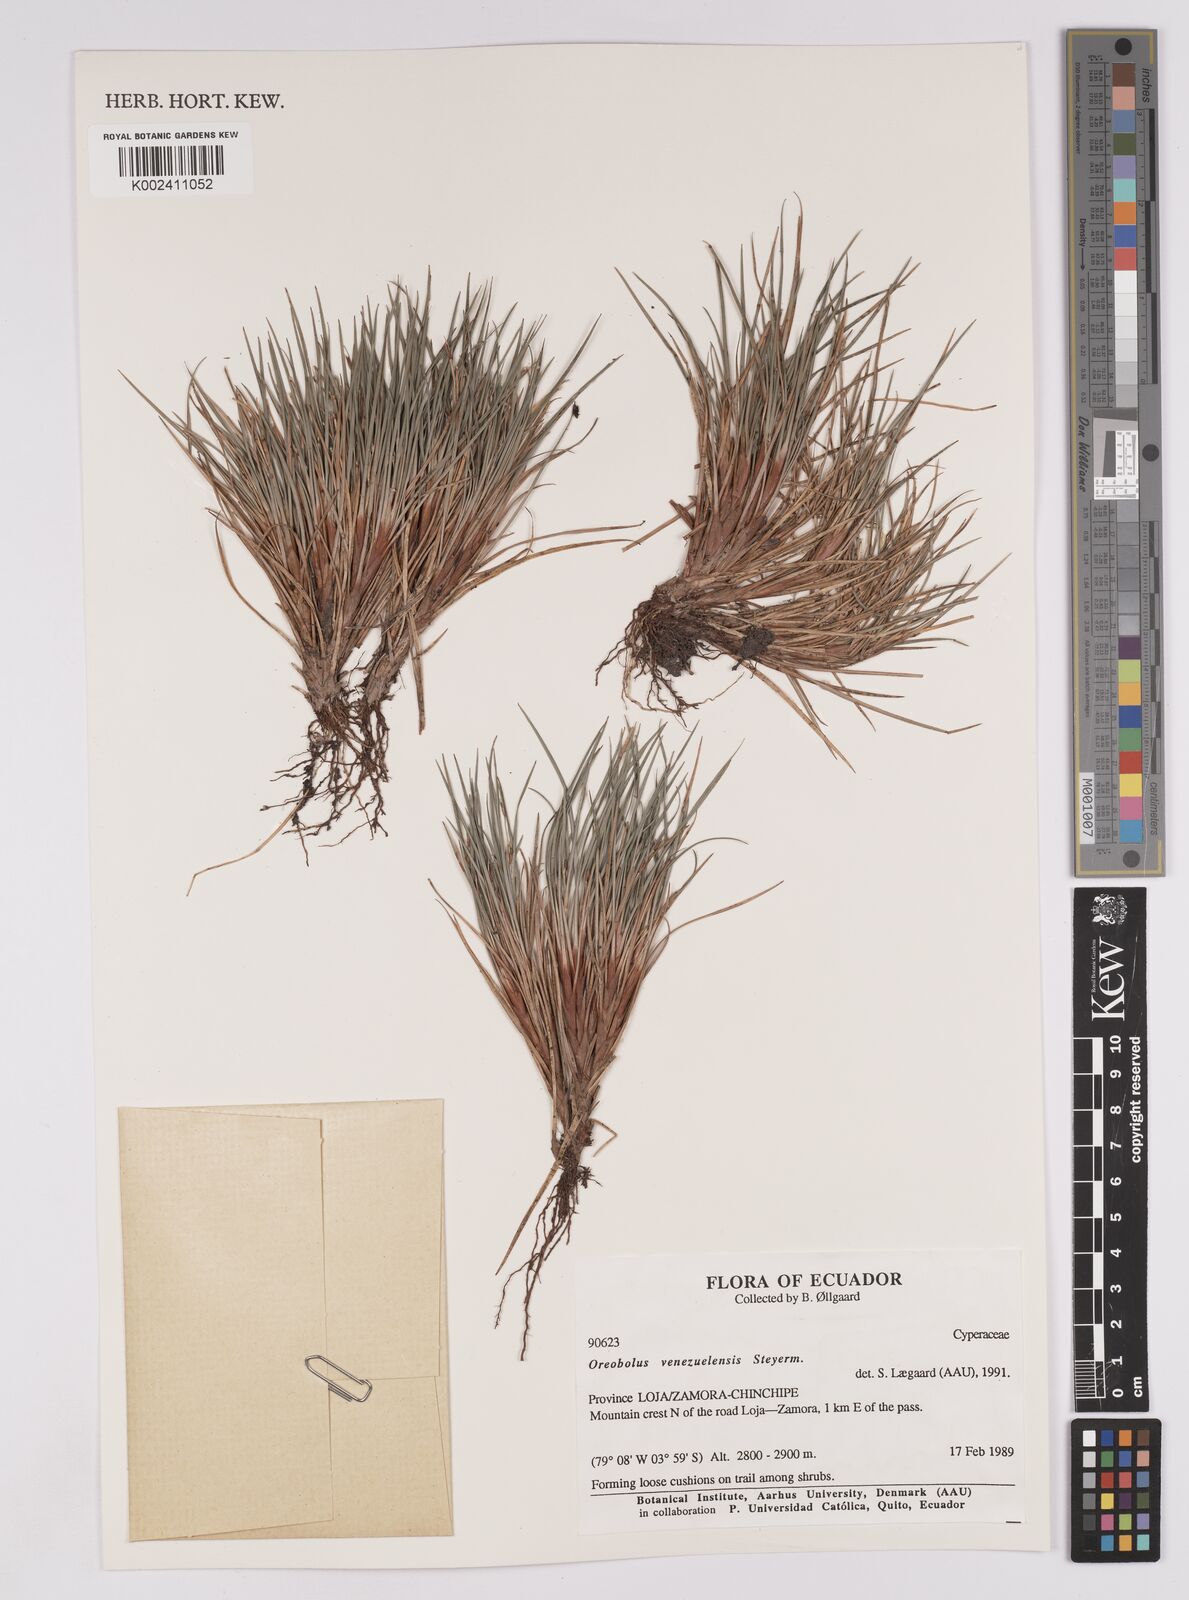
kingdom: Plantae
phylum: Tracheophyta
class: Liliopsida
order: Poales
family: Cyperaceae
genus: Oreobolus
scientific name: Oreobolus venezuelensis
